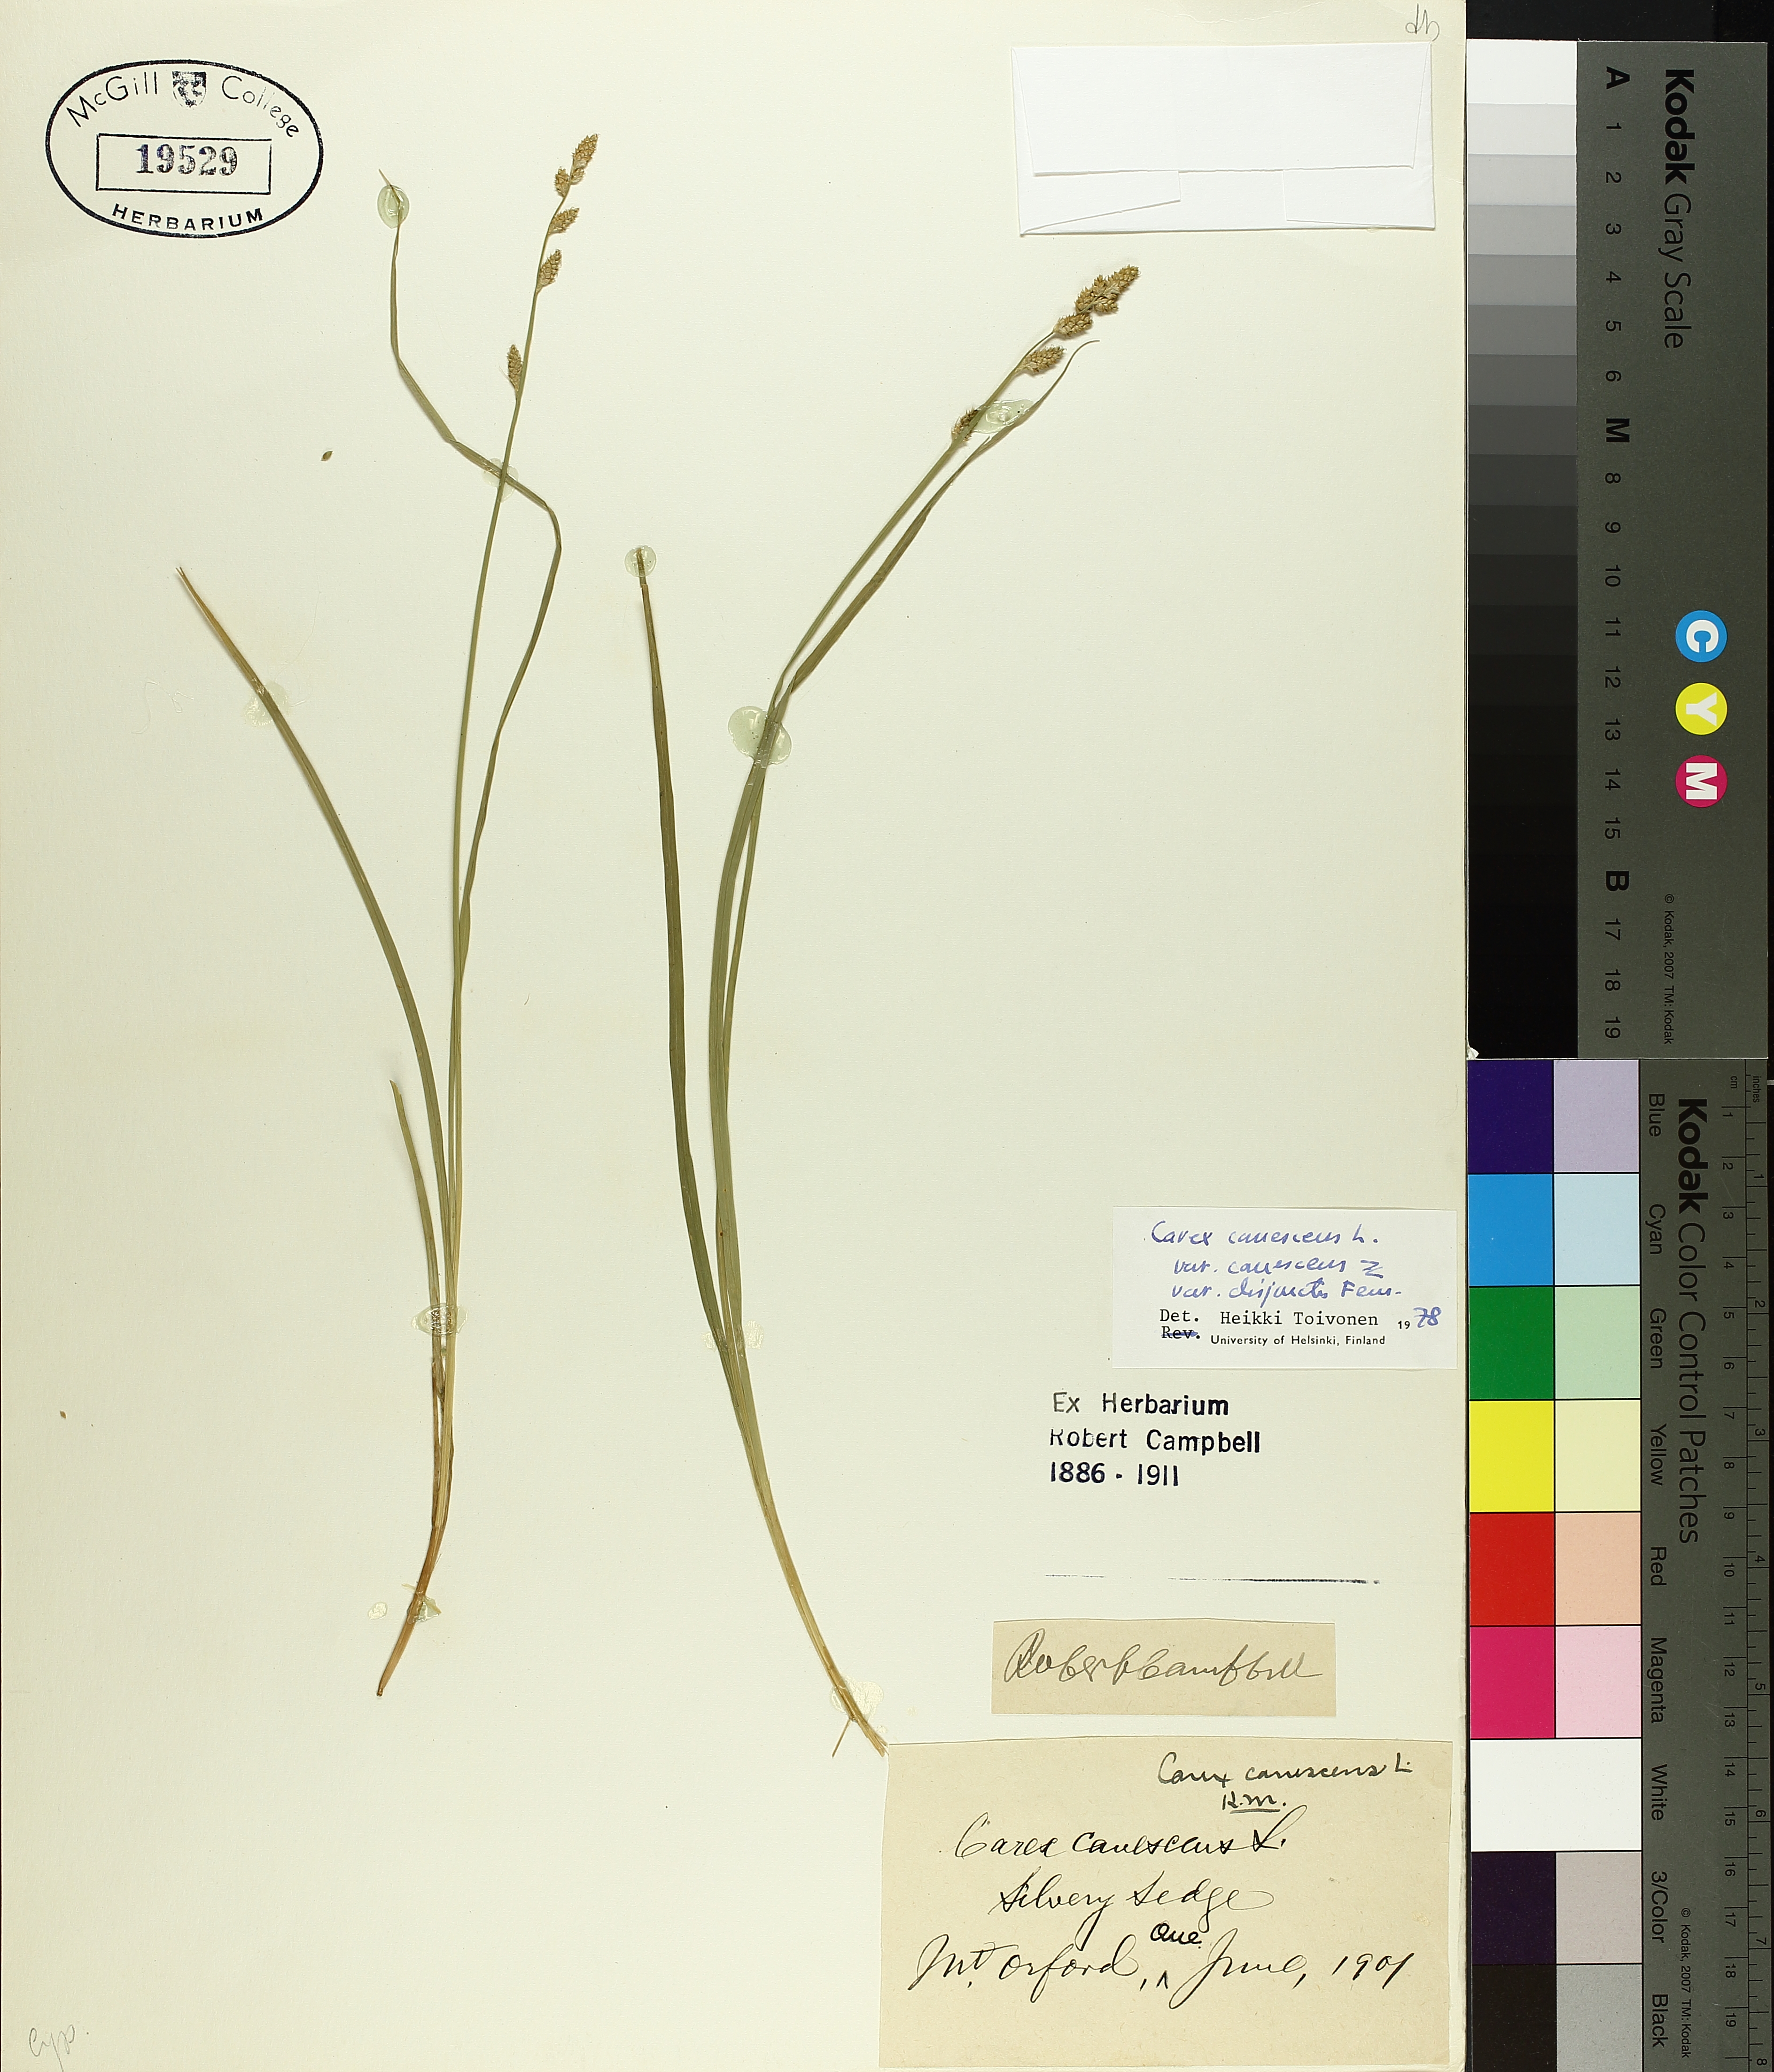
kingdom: Plantae
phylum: Tracheophyta
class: Liliopsida
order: Poales
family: Cyperaceae
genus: Carex
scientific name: Carex canescens
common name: White sedge
